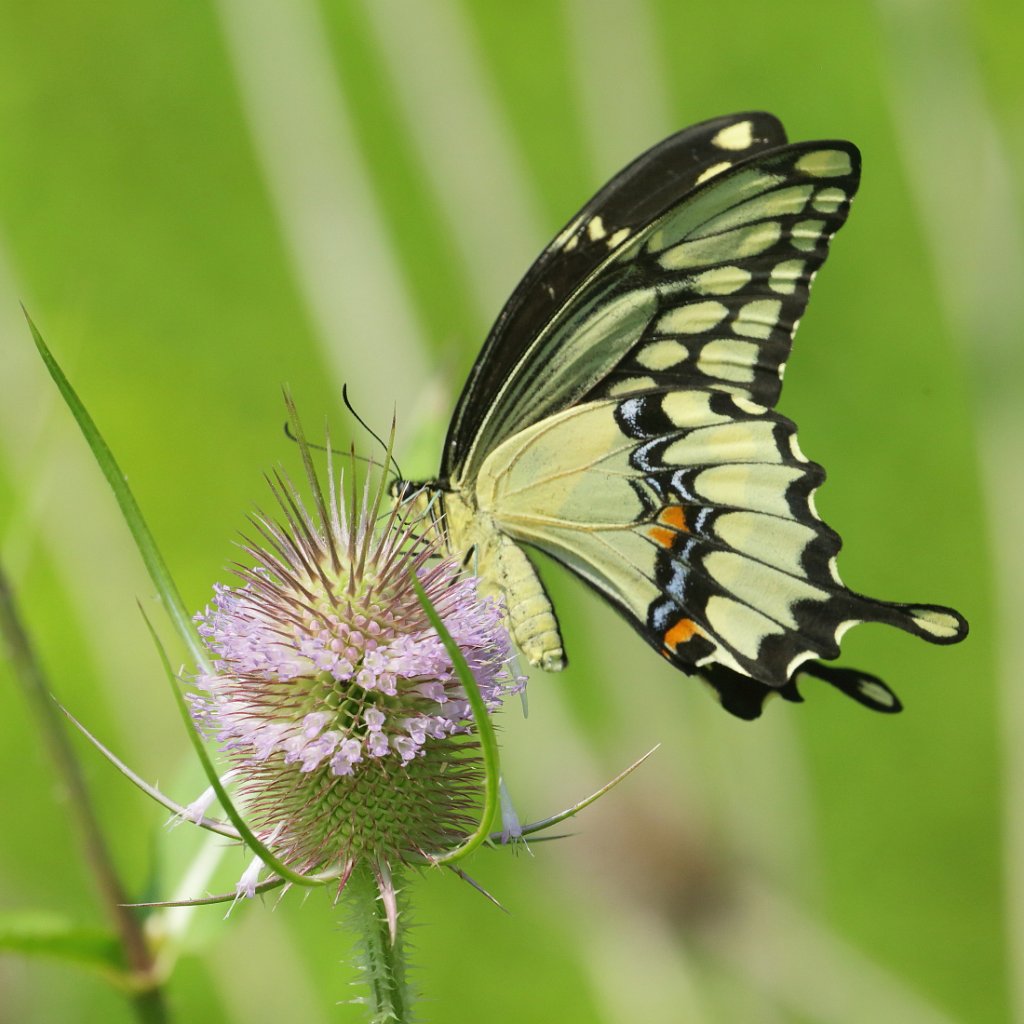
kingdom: Animalia
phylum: Arthropoda
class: Insecta
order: Lepidoptera
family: Papilionidae
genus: Papilio
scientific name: Papilio cresphontes
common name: Eastern Giant Swallowtail
